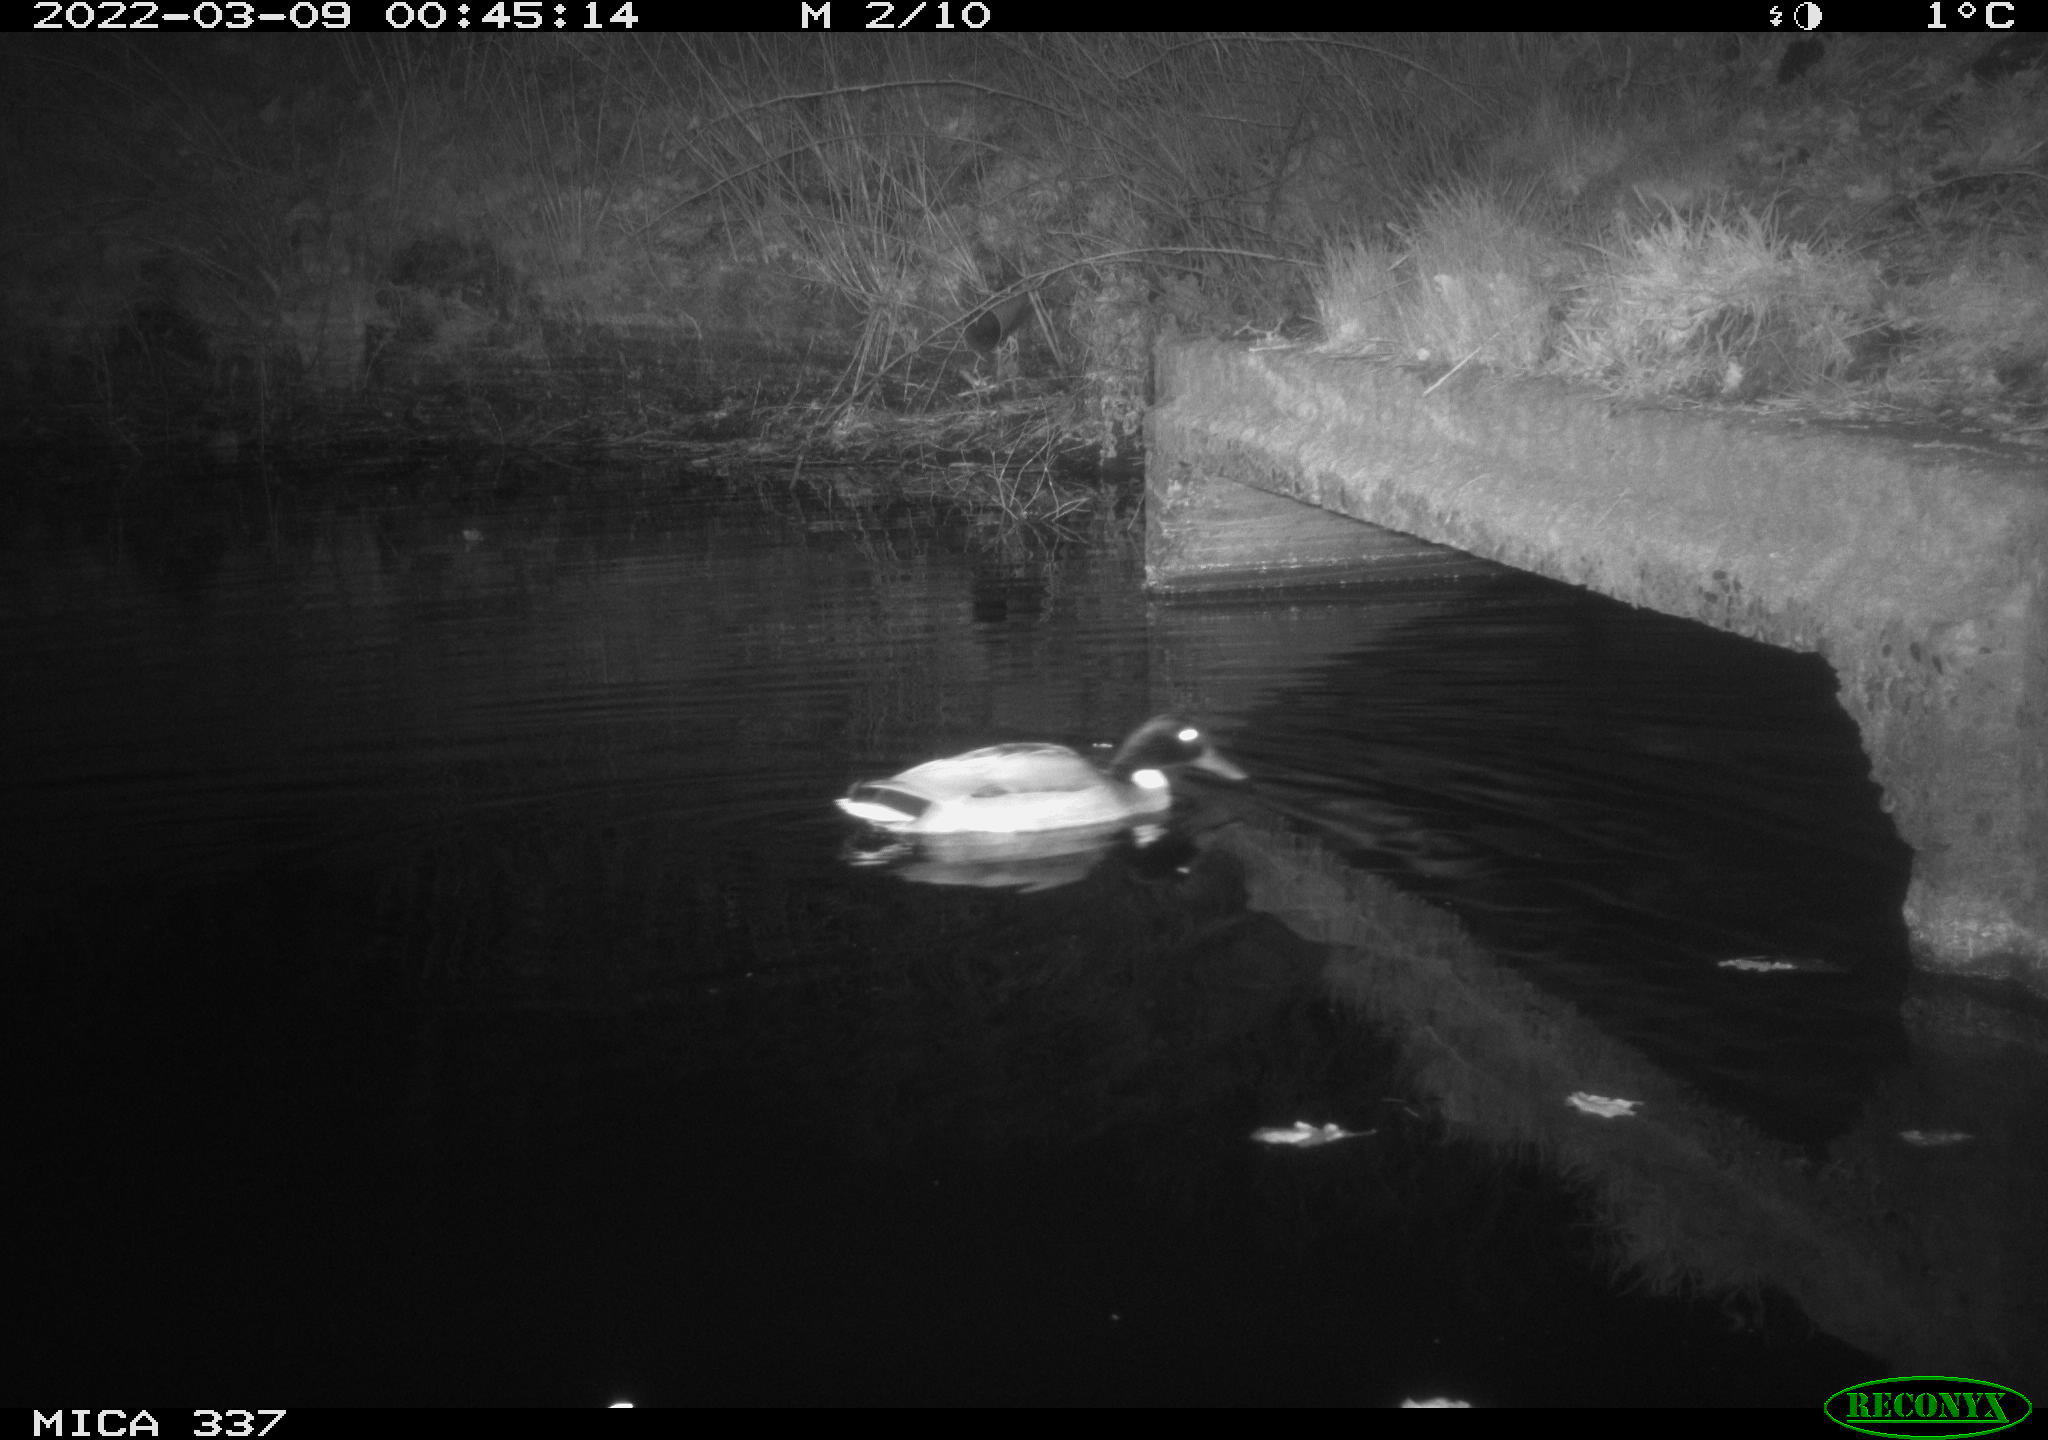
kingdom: Animalia
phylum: Chordata
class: Aves
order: Anseriformes
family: Anatidae
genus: Anas
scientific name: Anas platyrhynchos
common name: Mallard
